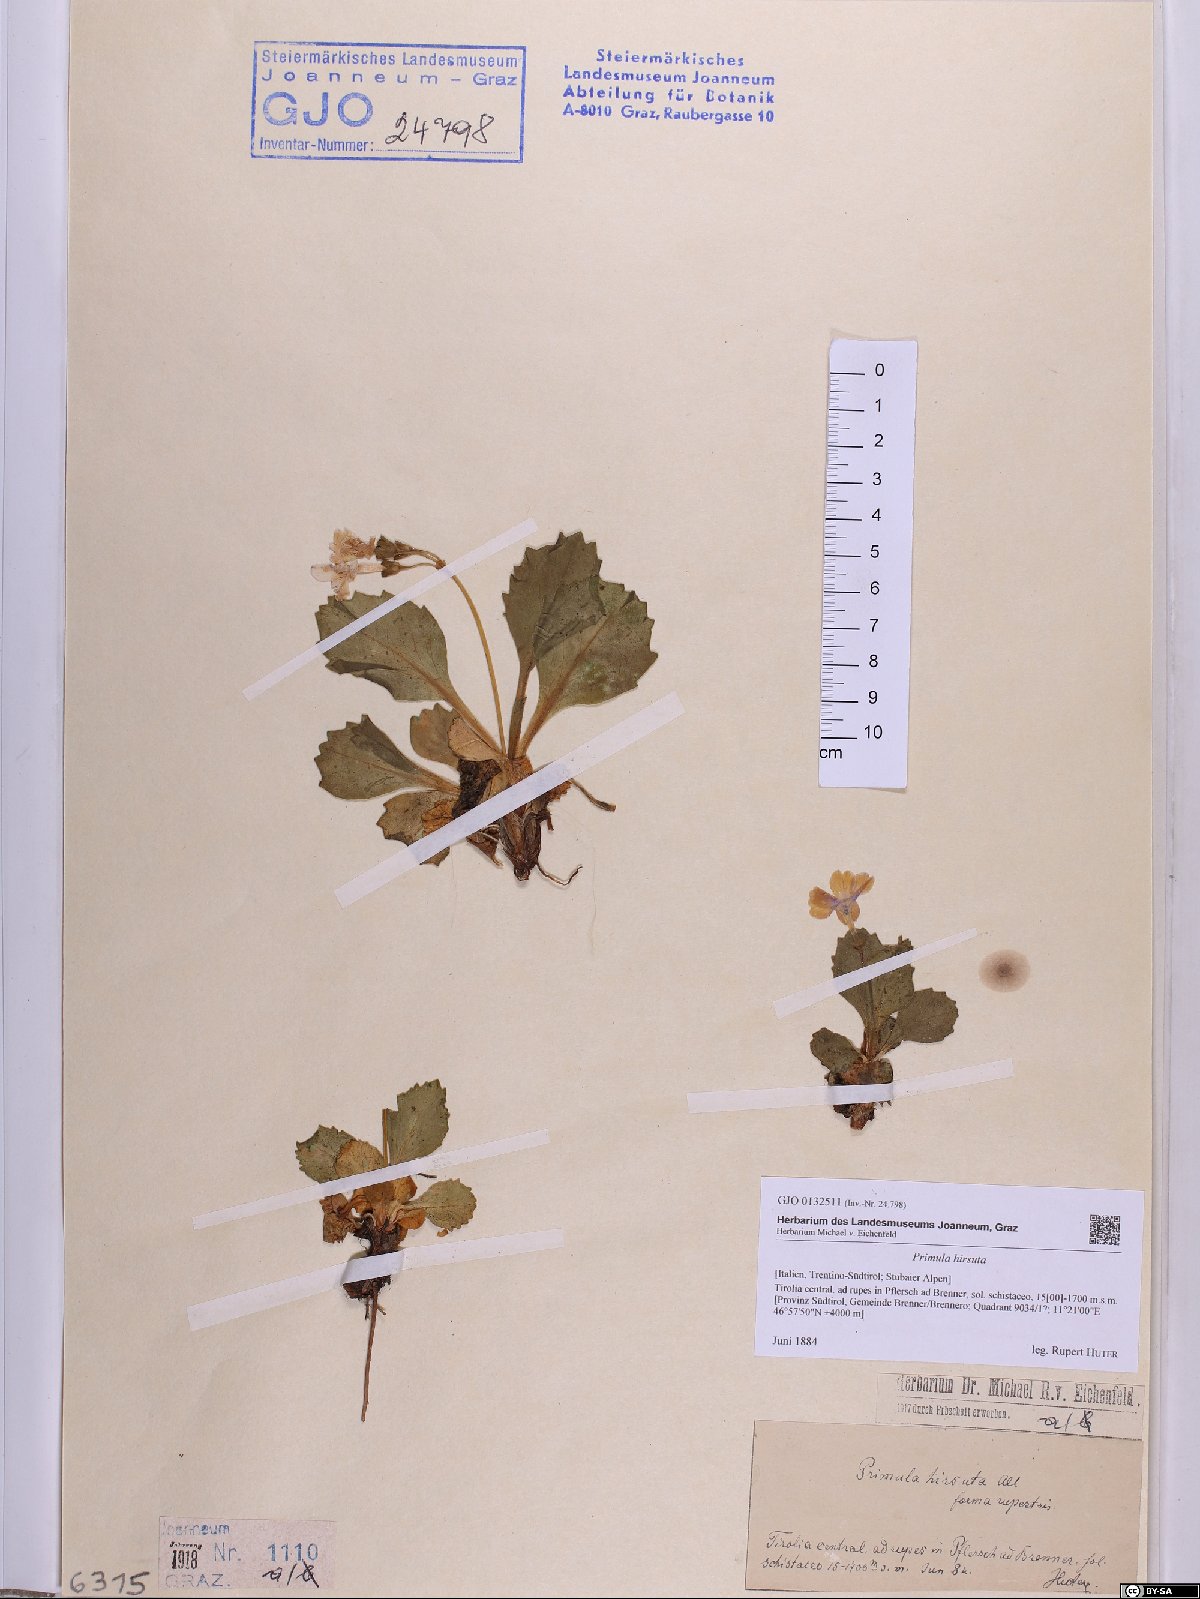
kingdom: Plantae
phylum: Tracheophyta
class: Magnoliopsida
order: Ericales
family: Primulaceae
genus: Primula
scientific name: Primula hirsuta
